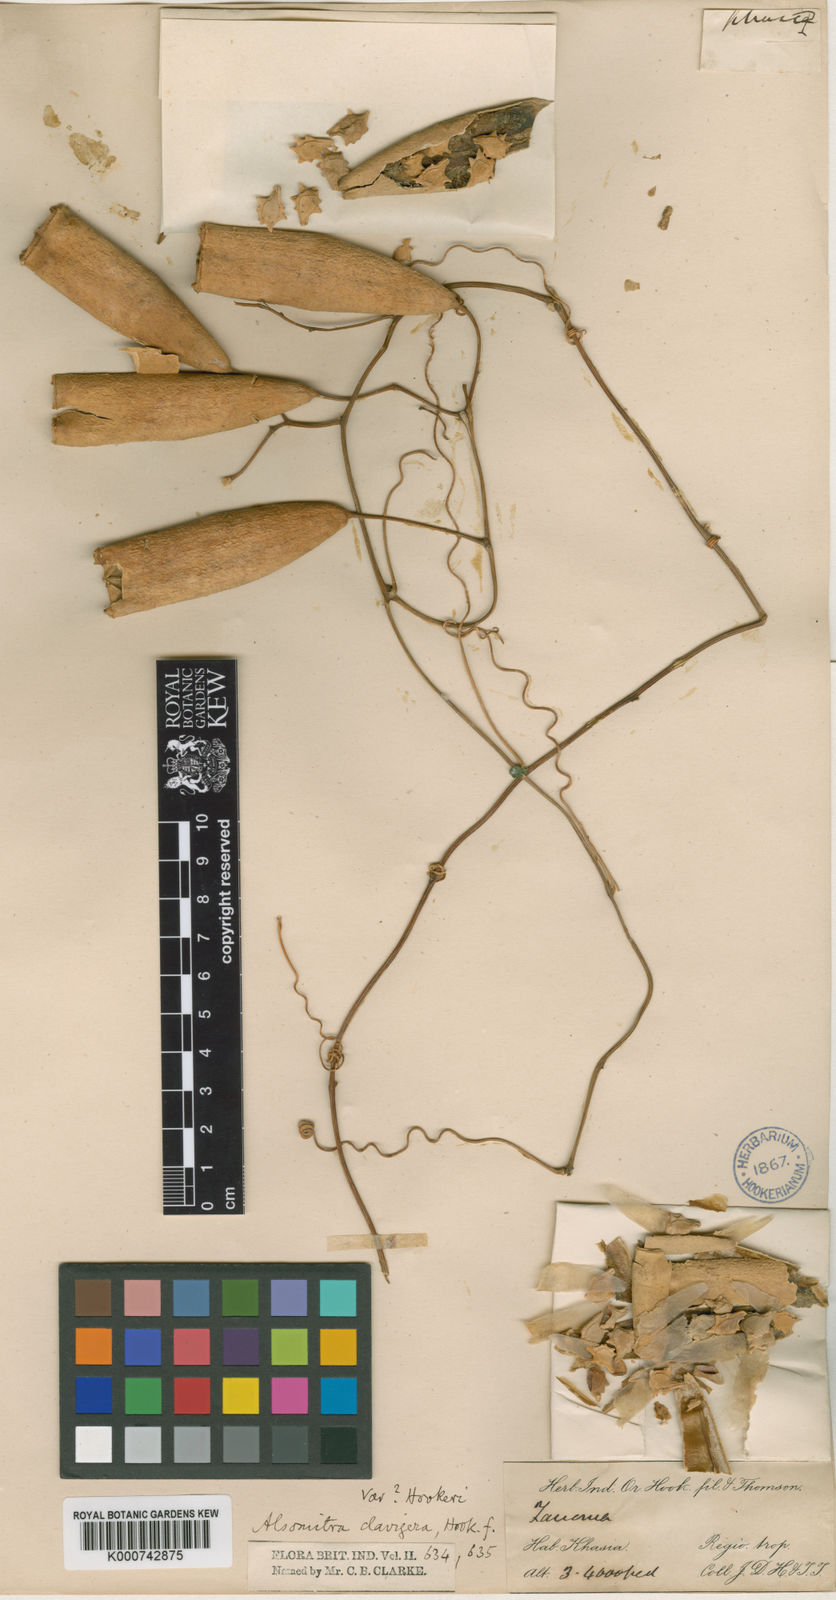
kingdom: Plantae
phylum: Tracheophyta
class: Magnoliopsida
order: Cucurbitales
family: Cucurbitaceae
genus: Neoalsomitra
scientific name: Neoalsomitra clavigera
